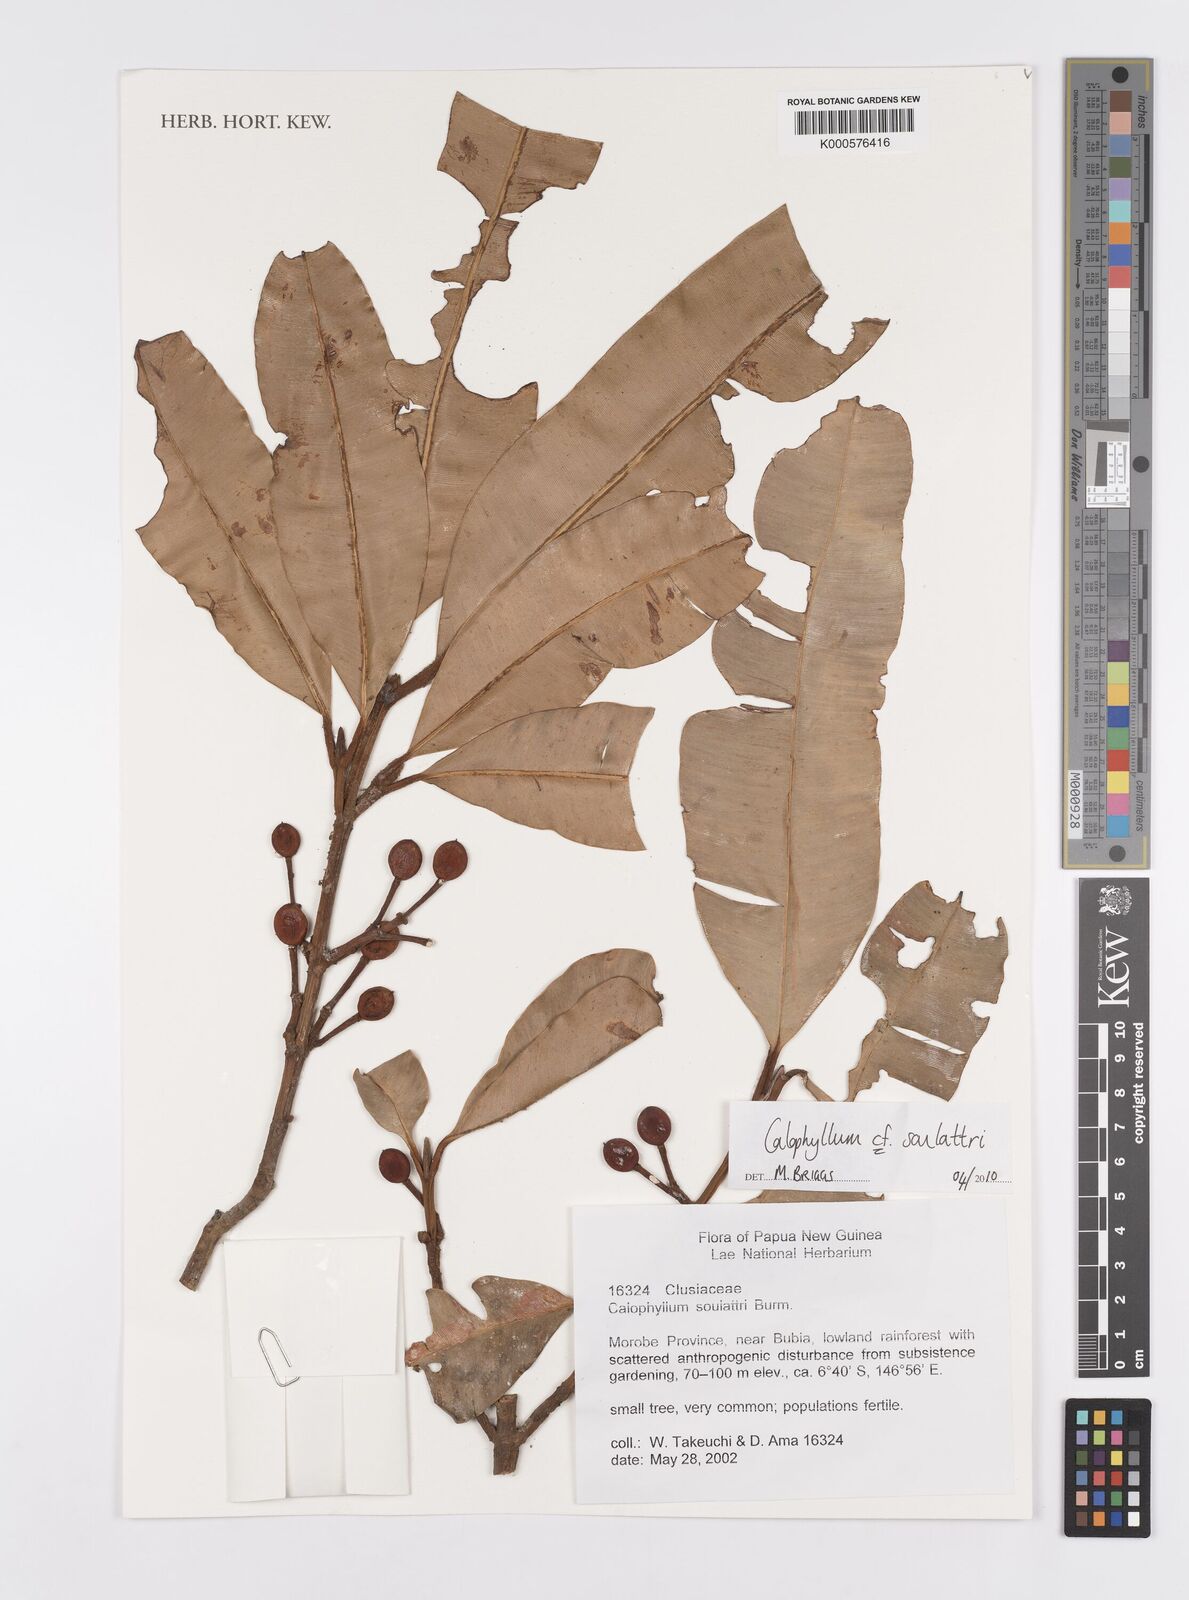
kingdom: Plantae
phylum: Tracheophyta
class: Magnoliopsida
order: Malpighiales
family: Calophyllaceae
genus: Calophyllum
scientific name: Calophyllum soulattri
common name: Bitangoor boonot
